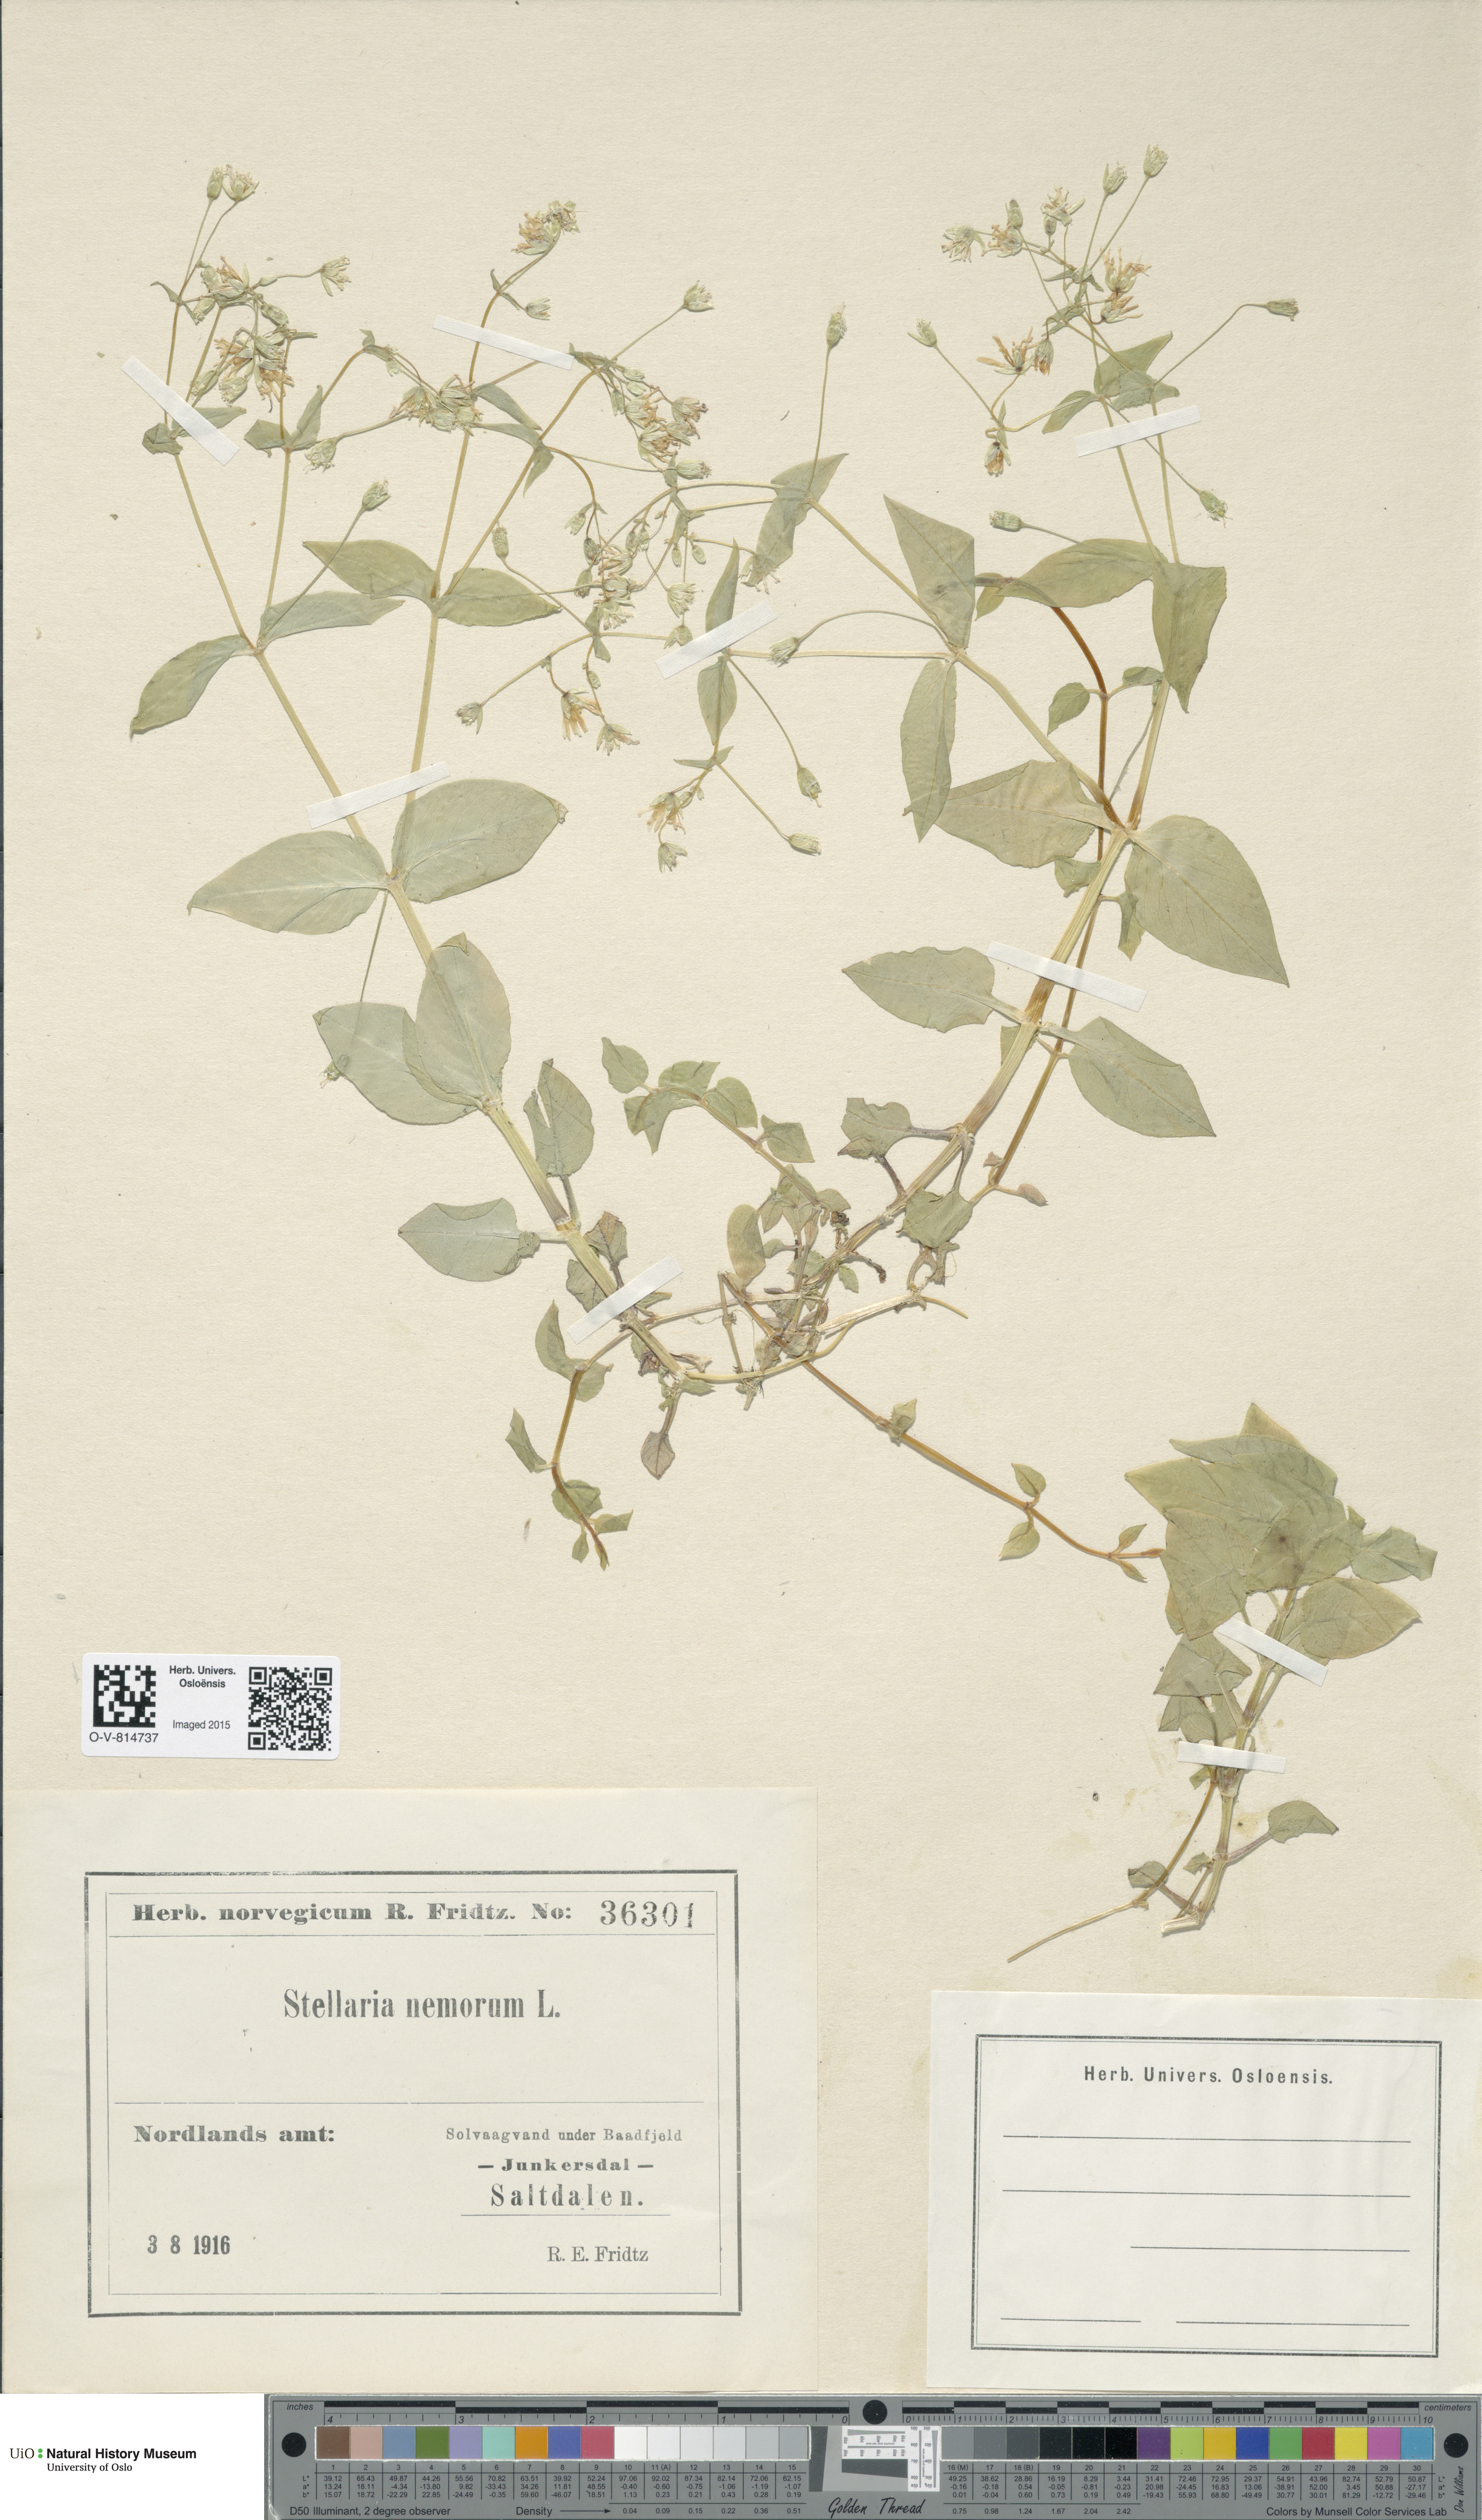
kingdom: Plantae
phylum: Tracheophyta
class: Magnoliopsida
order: Caryophyllales
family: Caryophyllaceae
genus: Stellaria
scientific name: Stellaria nemorum
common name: Wood stitchwort
